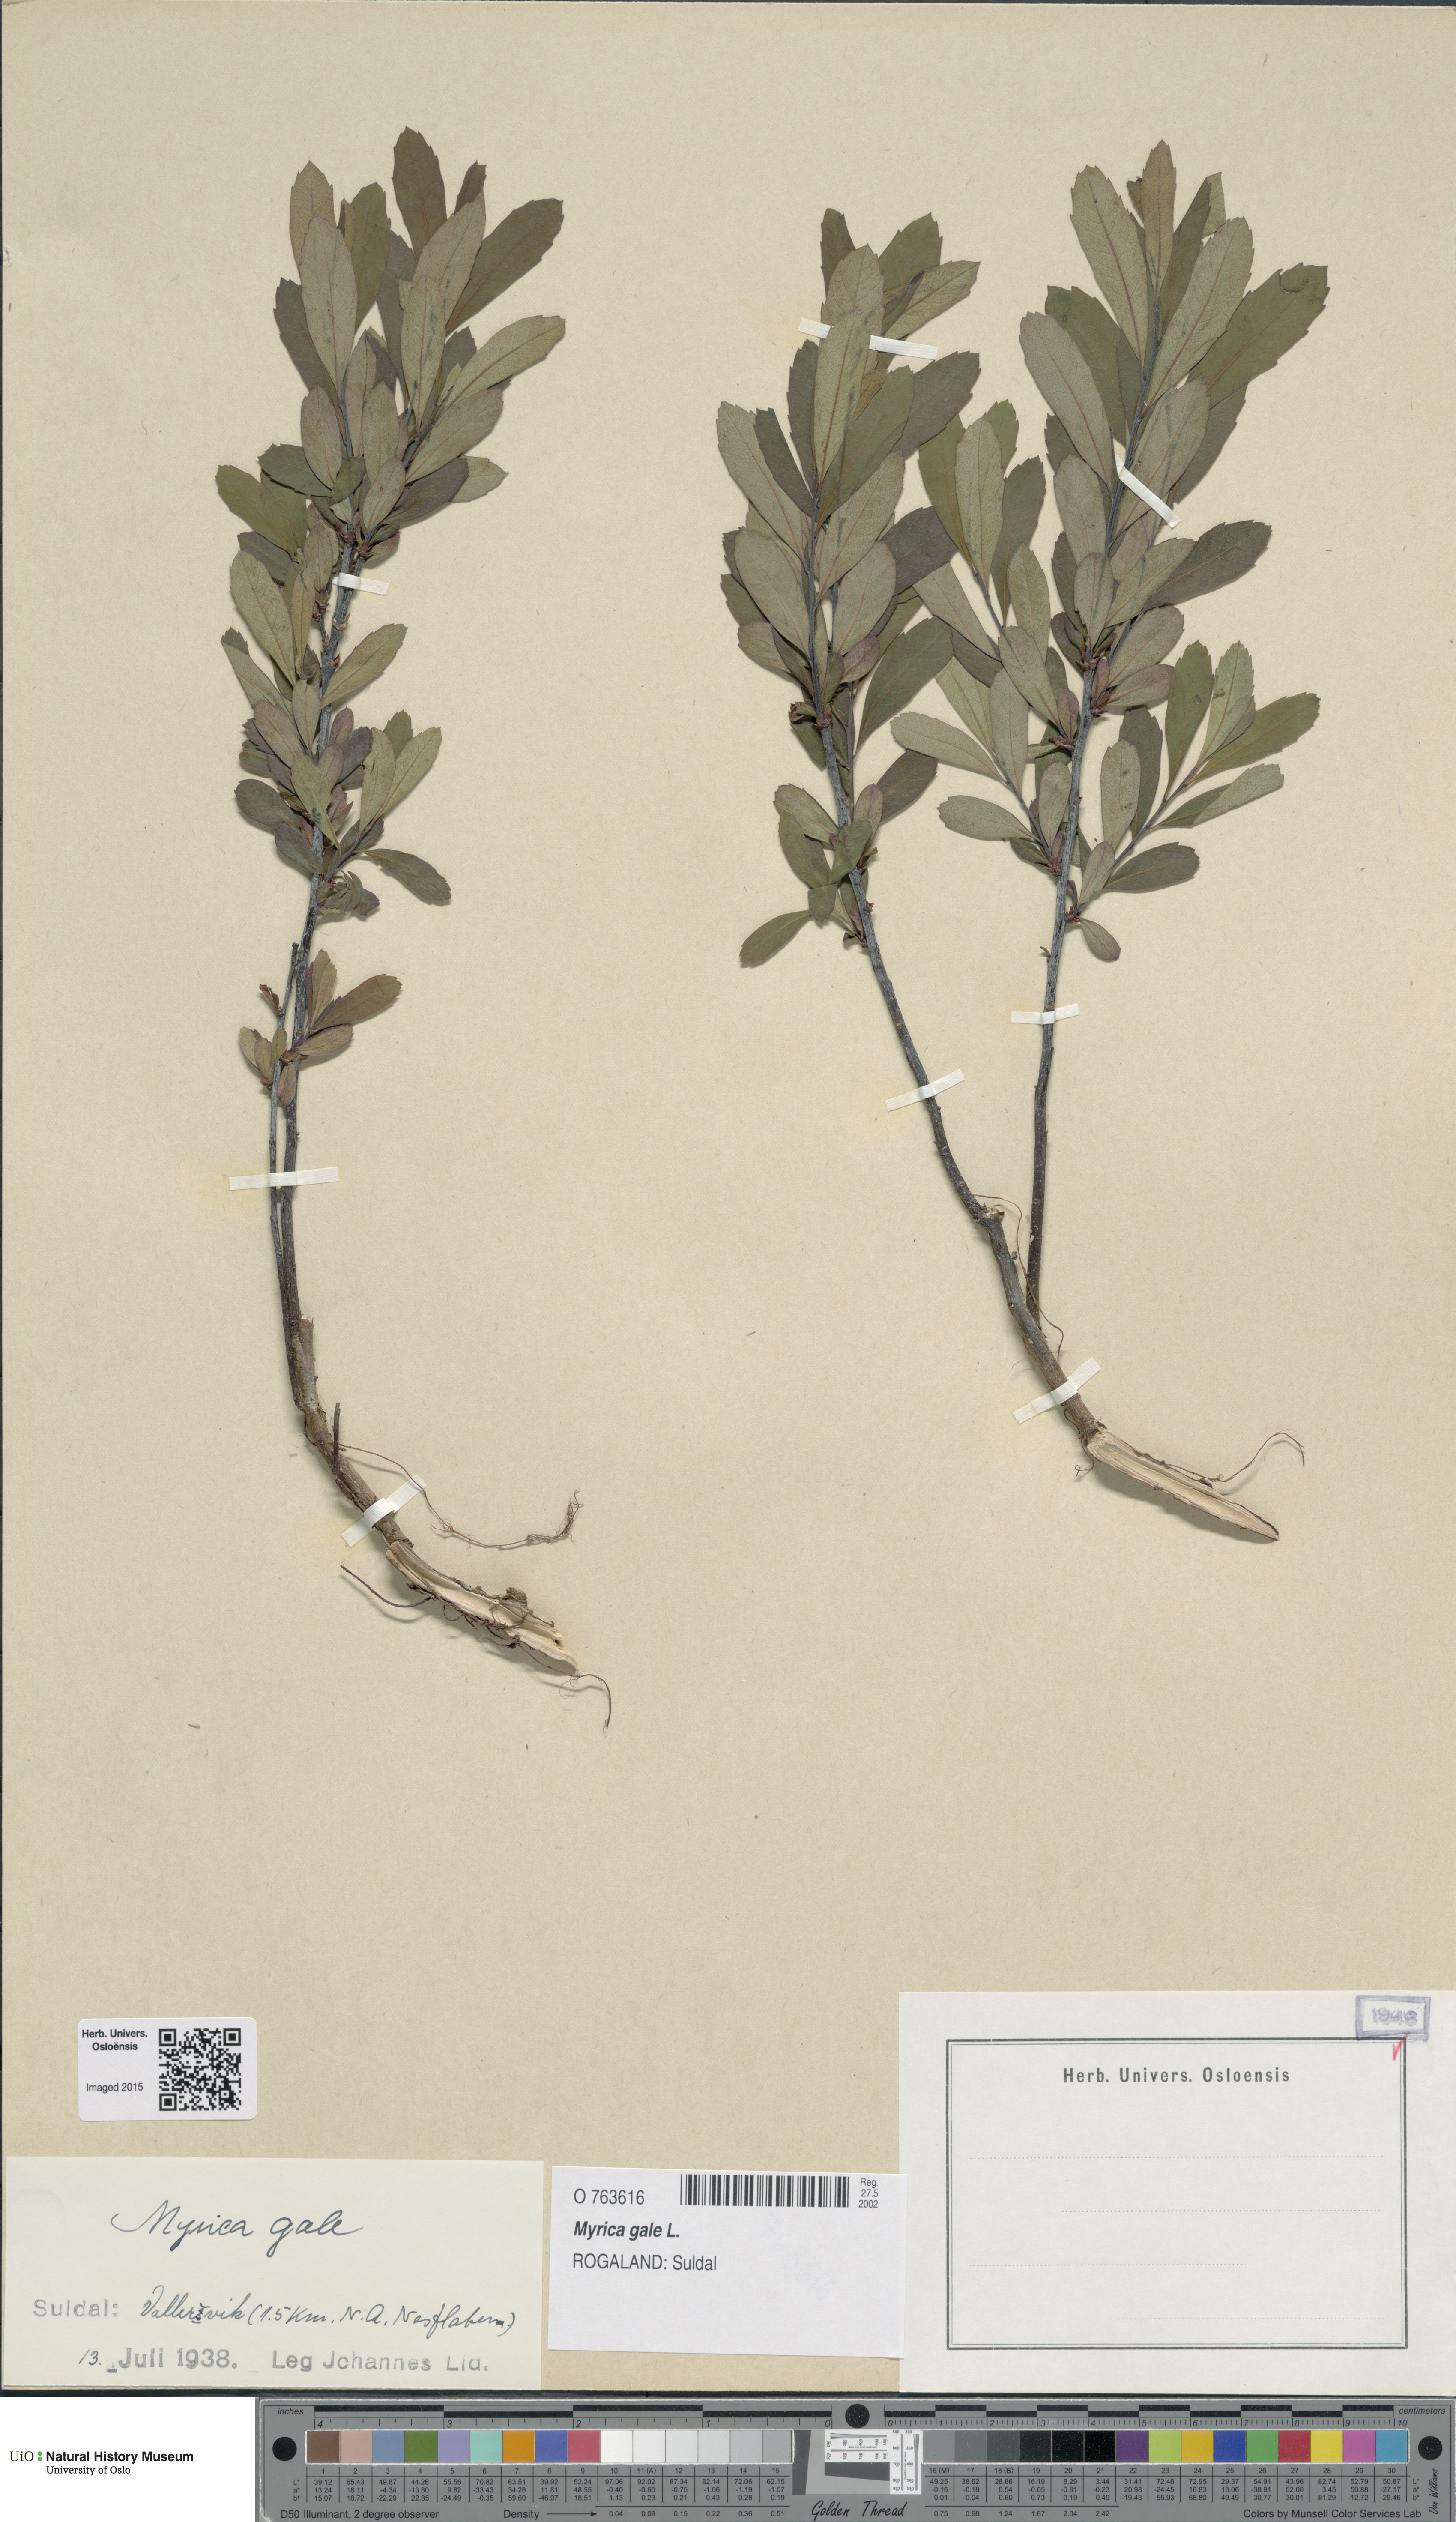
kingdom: Plantae
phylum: Tracheophyta
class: Magnoliopsida
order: Fagales
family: Myricaceae
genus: Myrica
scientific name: Myrica gale
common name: Sweet gale
